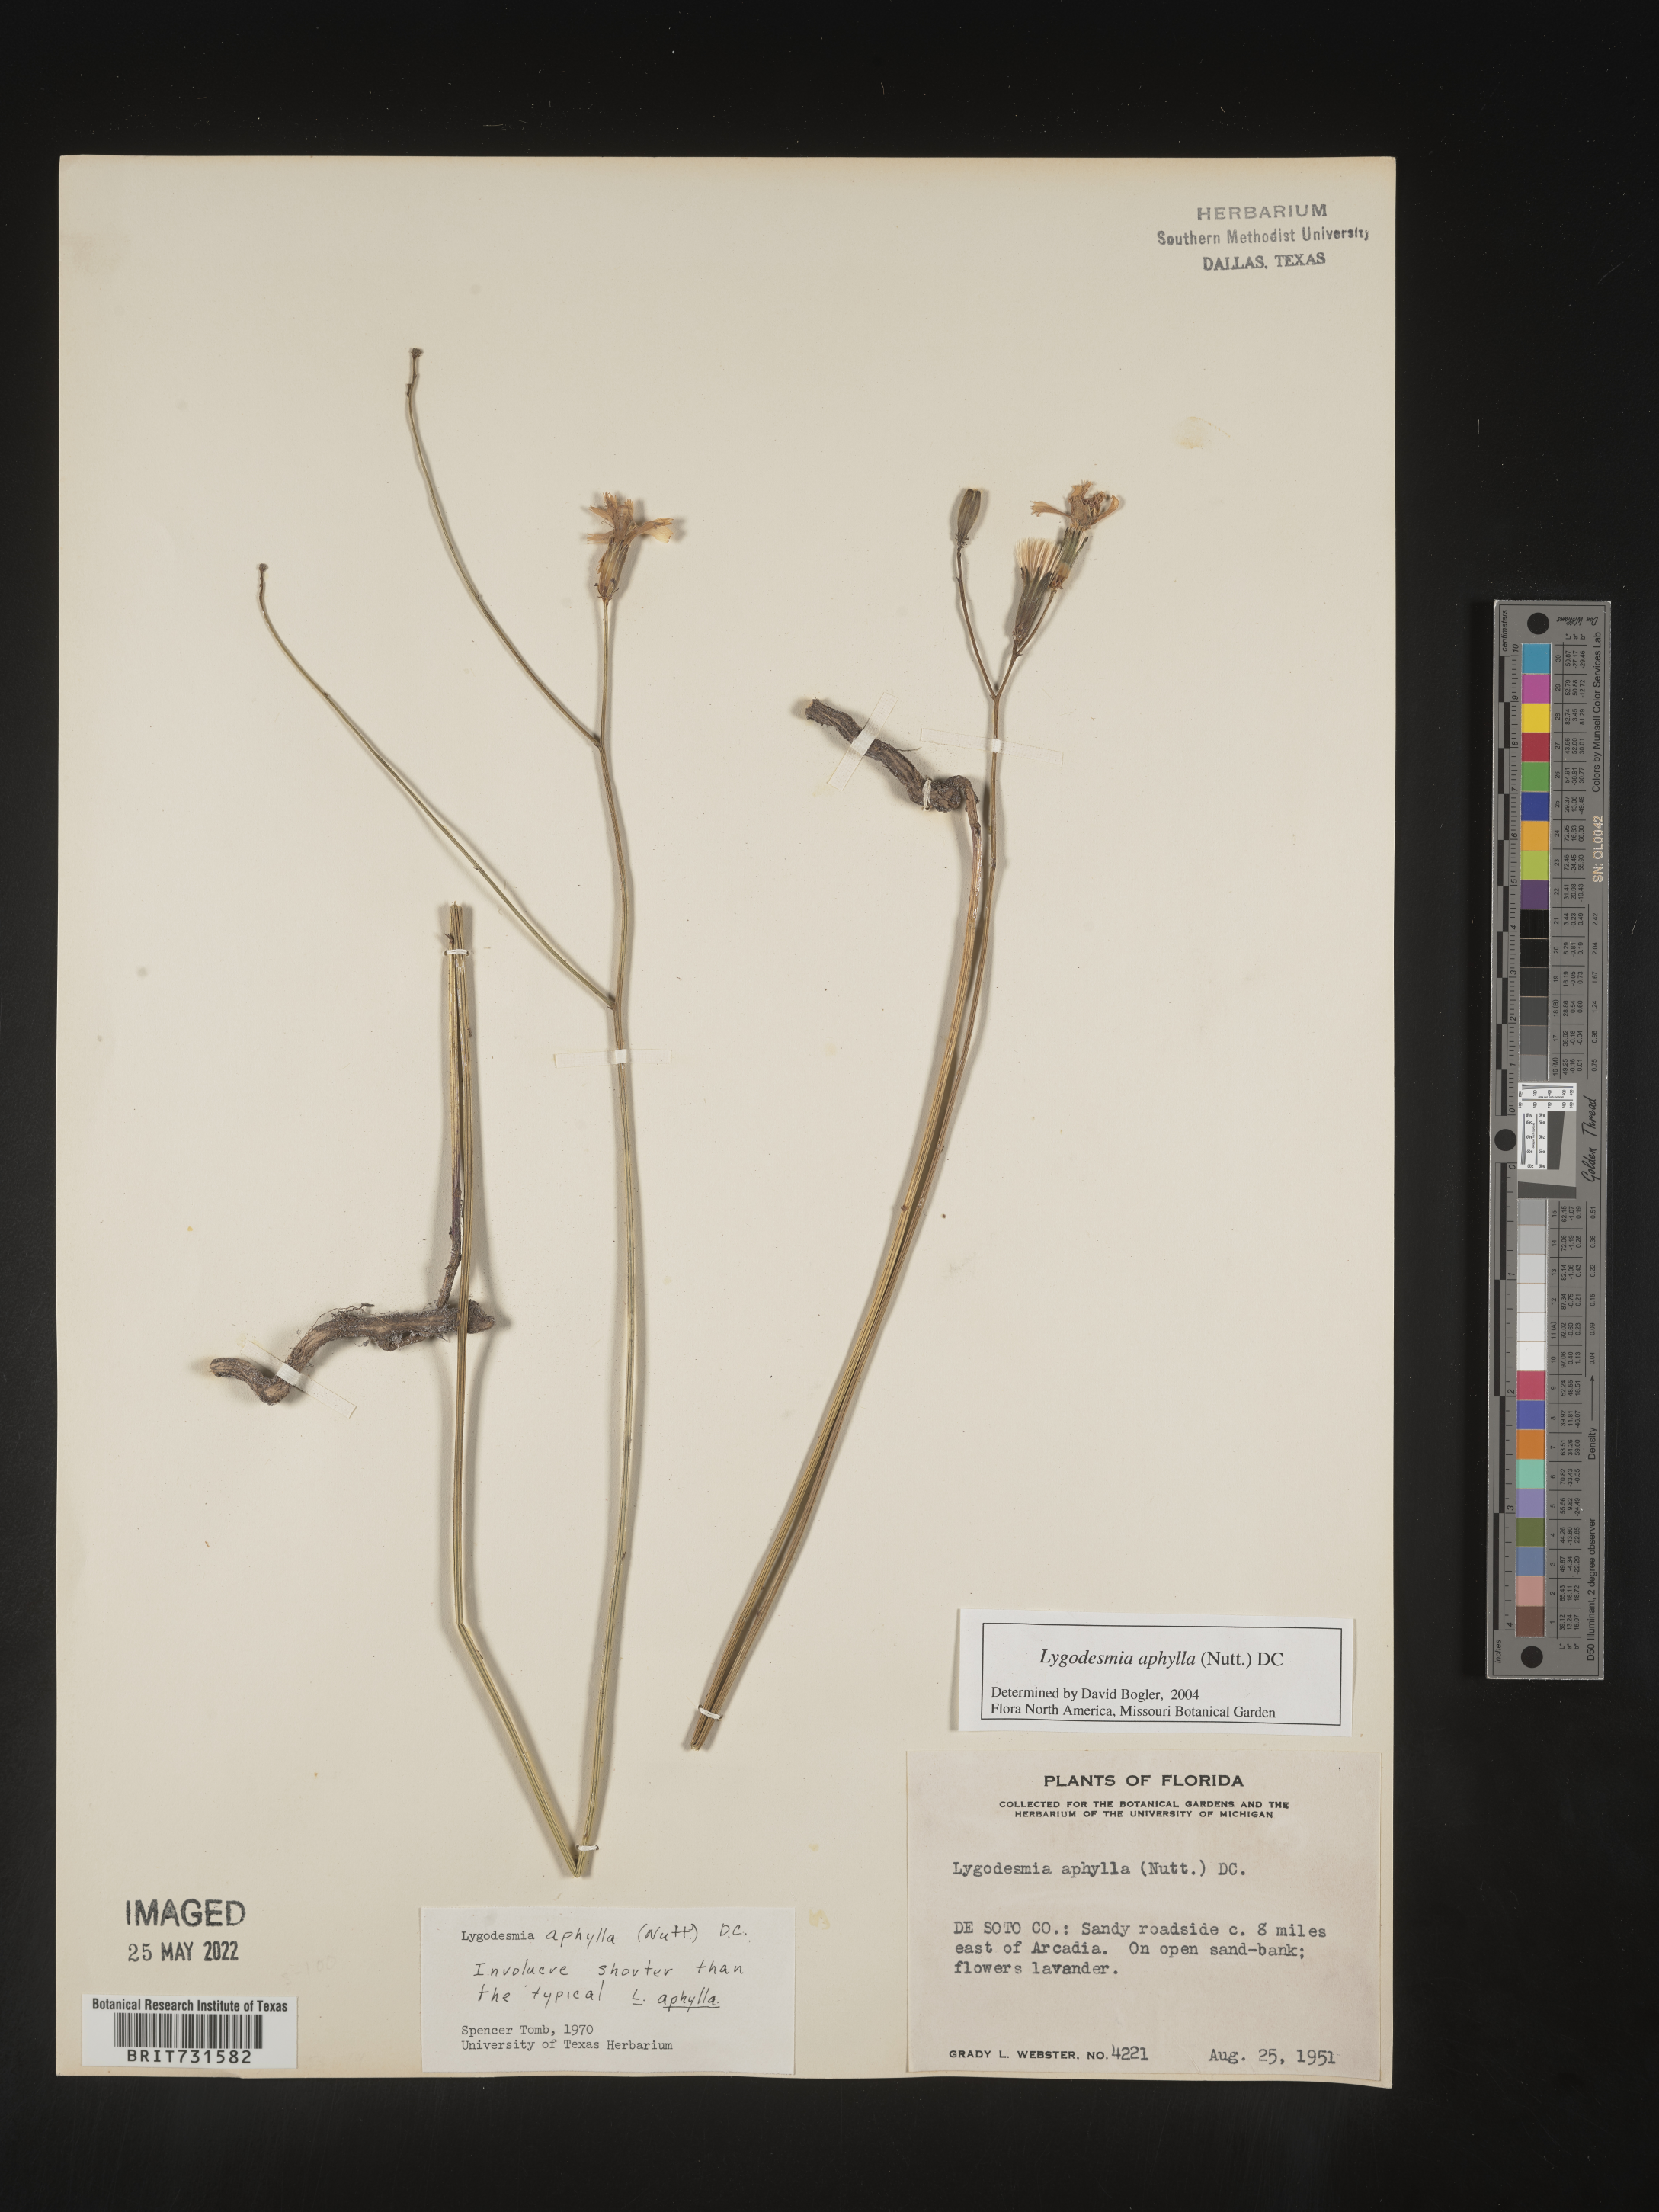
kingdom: Plantae
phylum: Tracheophyta
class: Magnoliopsida
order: Asterales
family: Asteraceae
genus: Lygodesmia
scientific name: Lygodesmia aphylla
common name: Rose-rush
